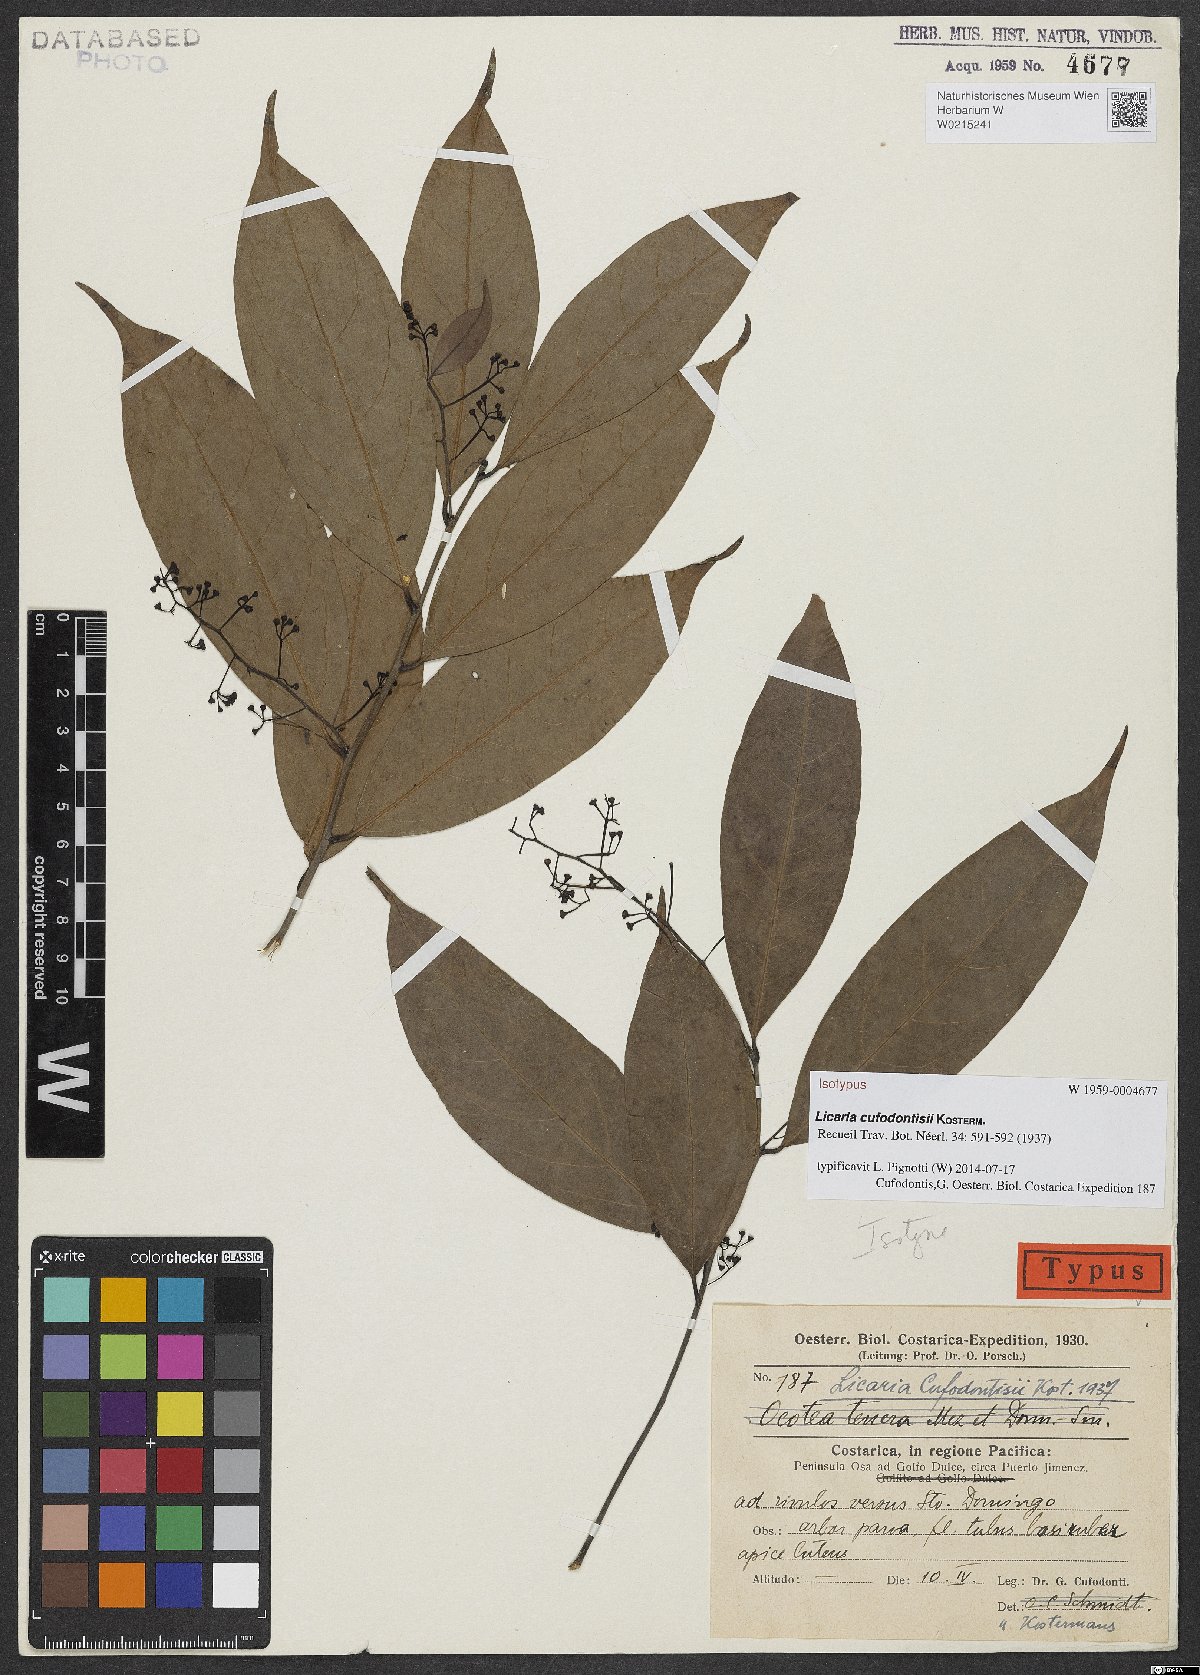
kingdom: Plantae
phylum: Tracheophyta
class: Magnoliopsida
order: Laurales
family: Lauraceae
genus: Licaria
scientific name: Licaria misantlae
